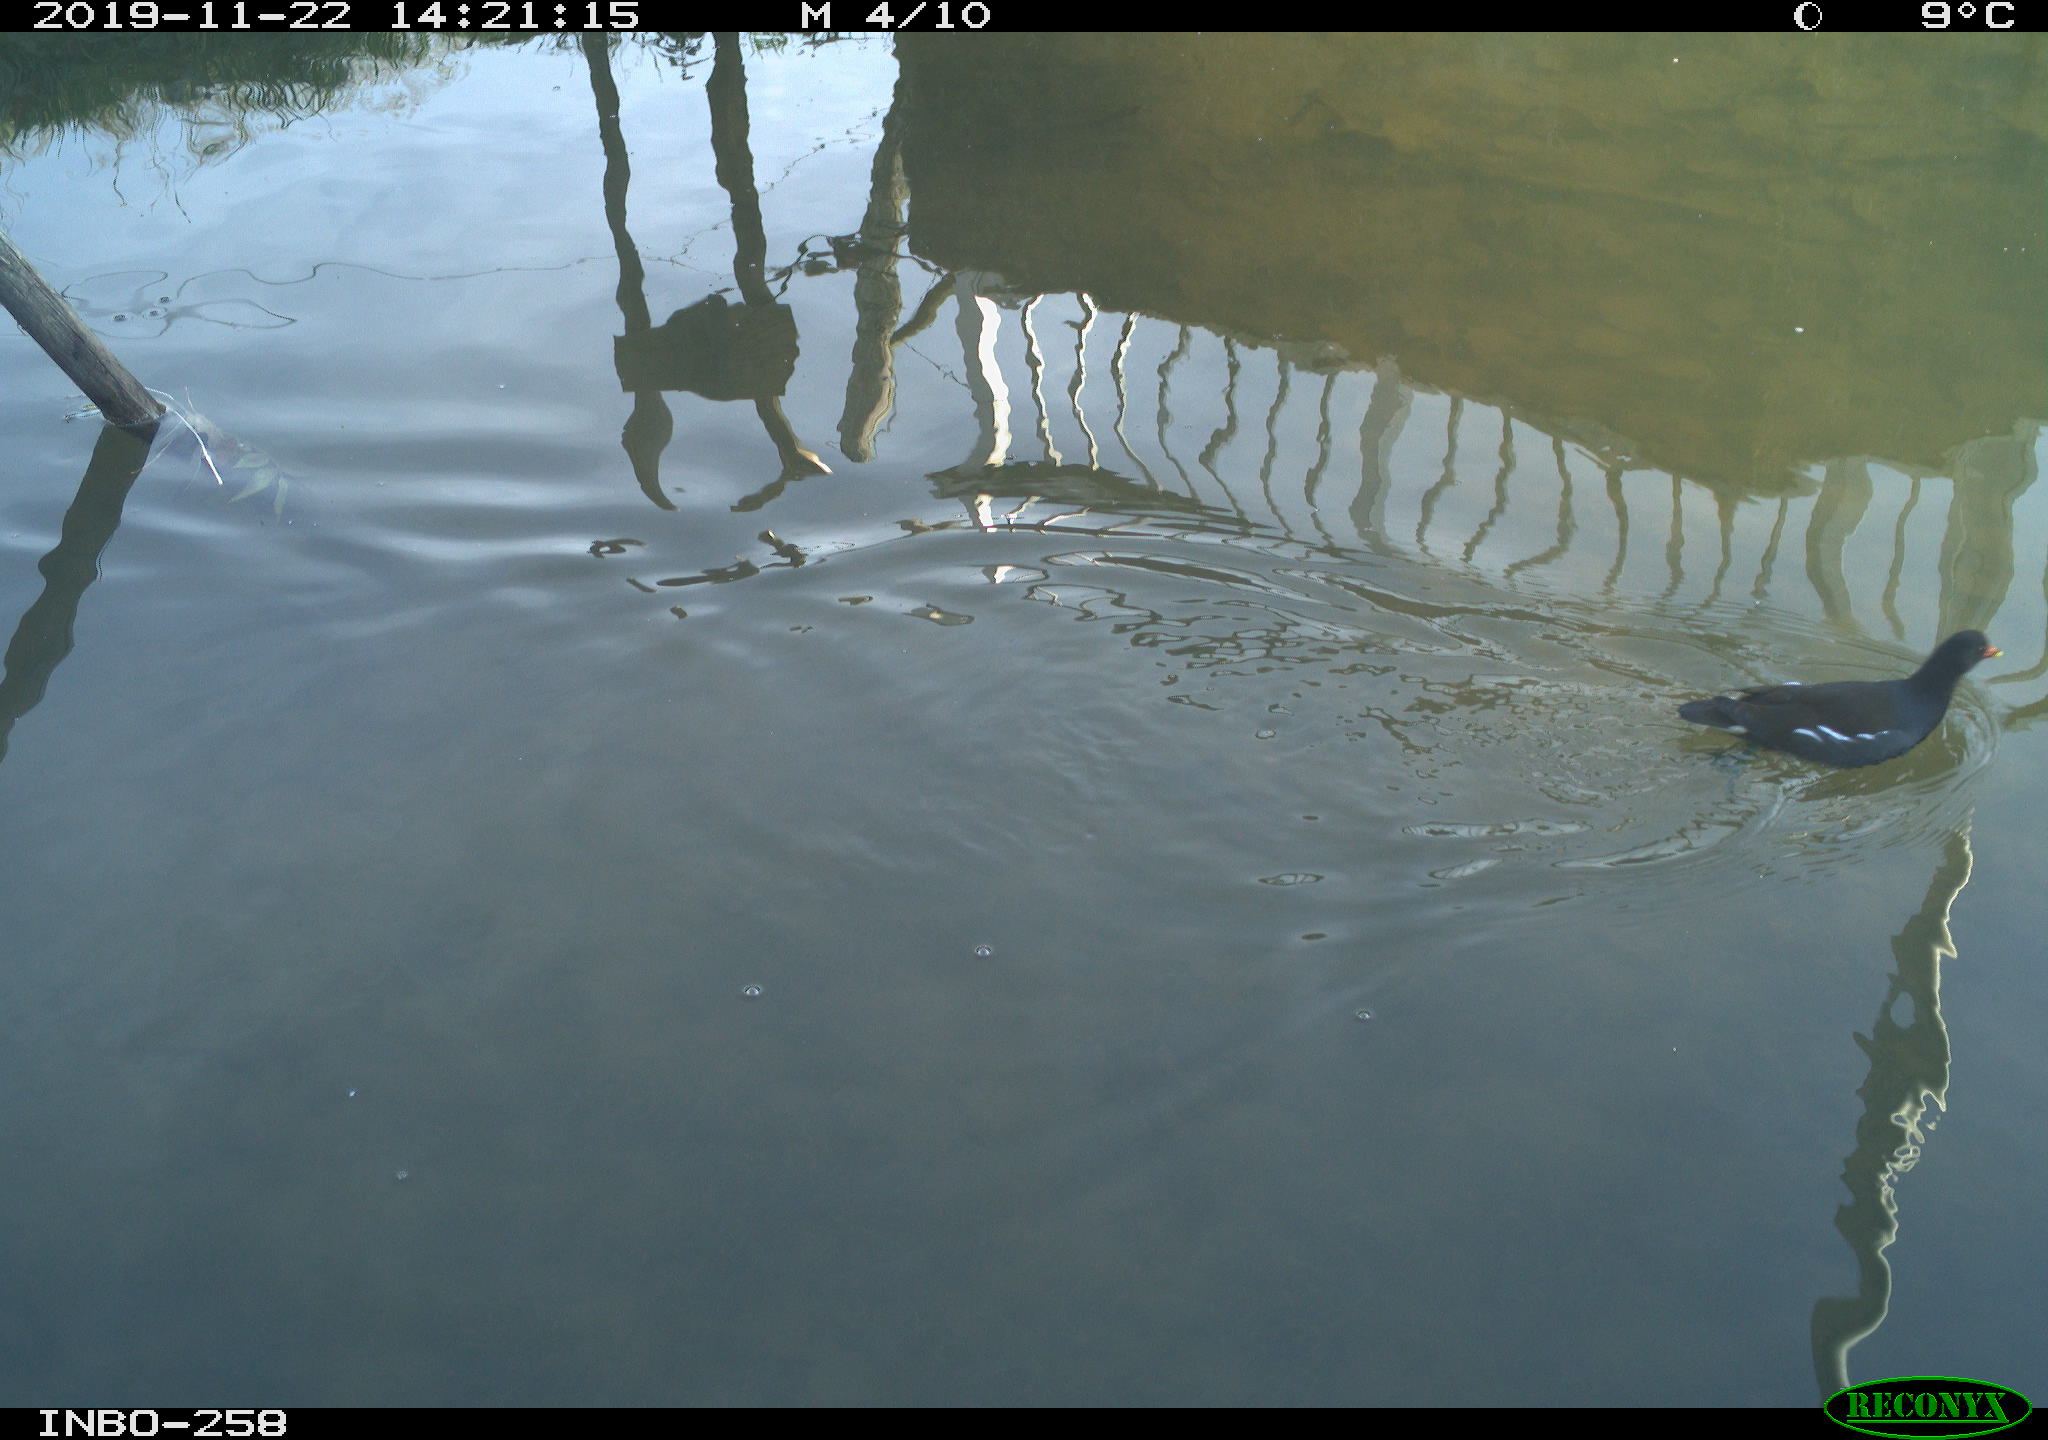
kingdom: Animalia
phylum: Chordata
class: Aves
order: Gruiformes
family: Rallidae
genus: Gallinula
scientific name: Gallinula chloropus
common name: Common moorhen
